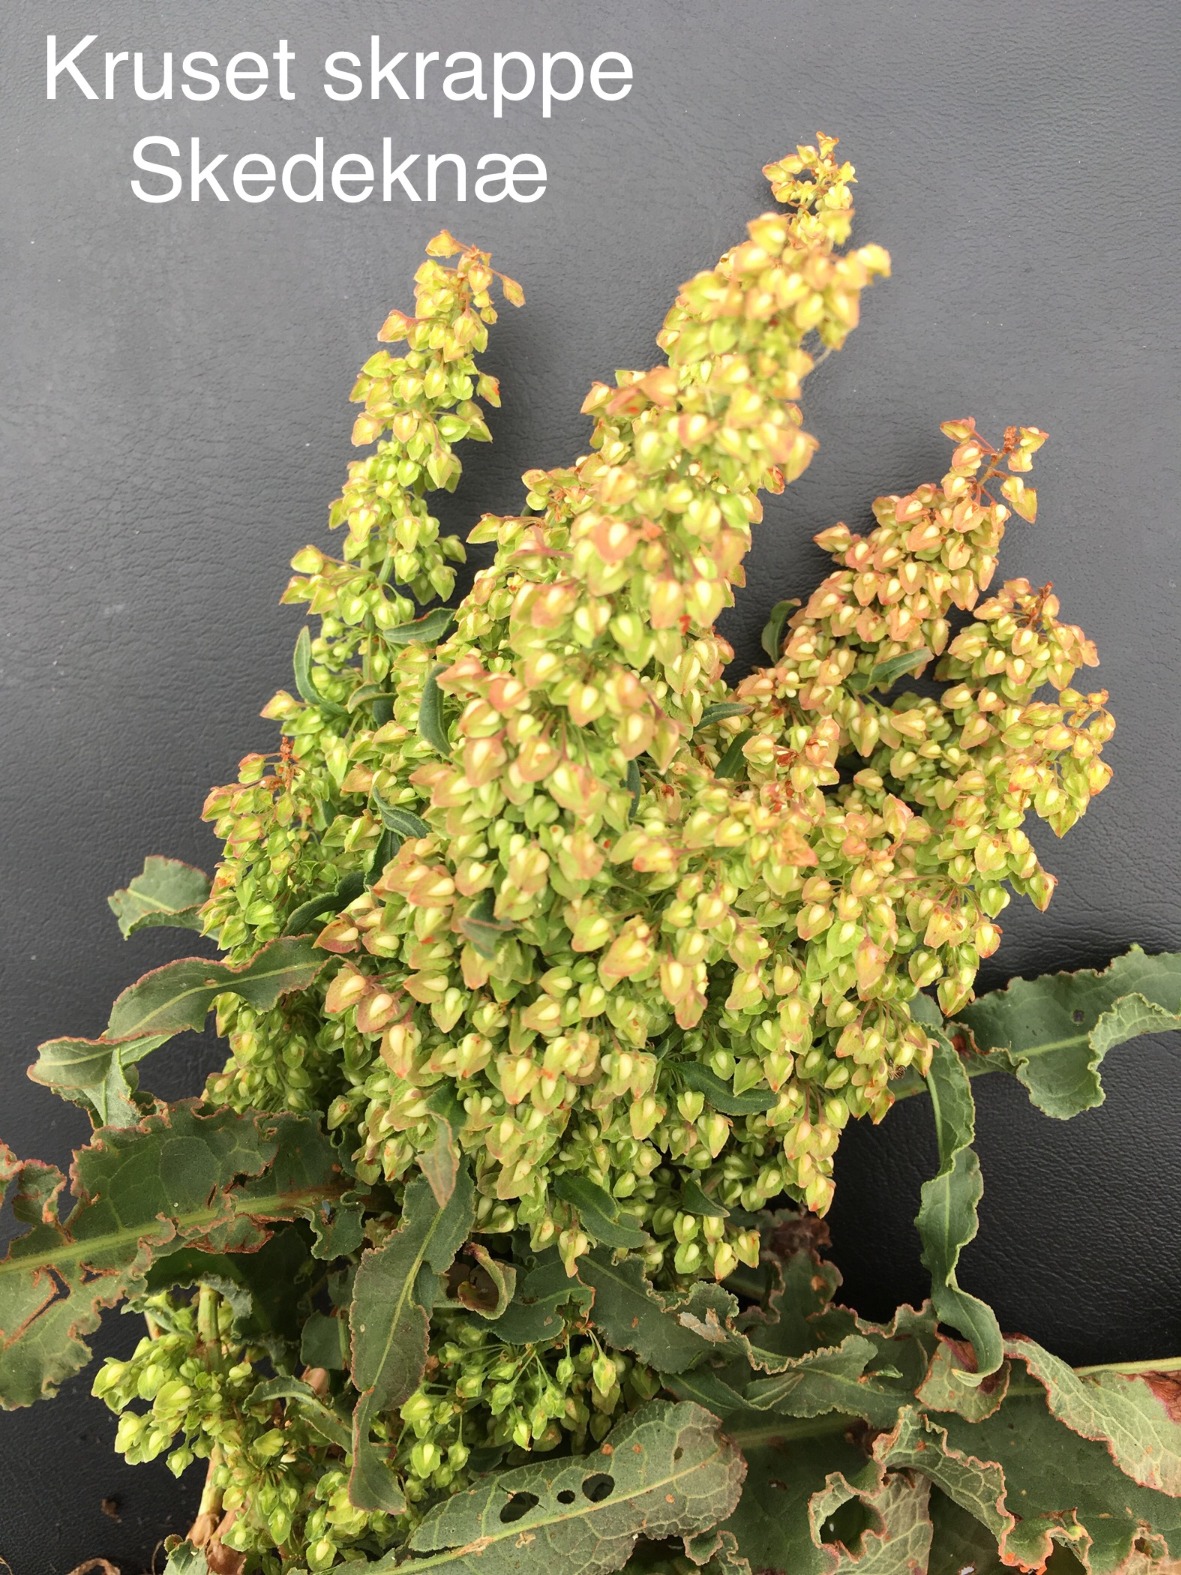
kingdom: Plantae
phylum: Tracheophyta
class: Magnoliopsida
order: Caryophyllales
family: Polygonaceae
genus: Rumex
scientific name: Rumex crispus
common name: Kruset skræppe
